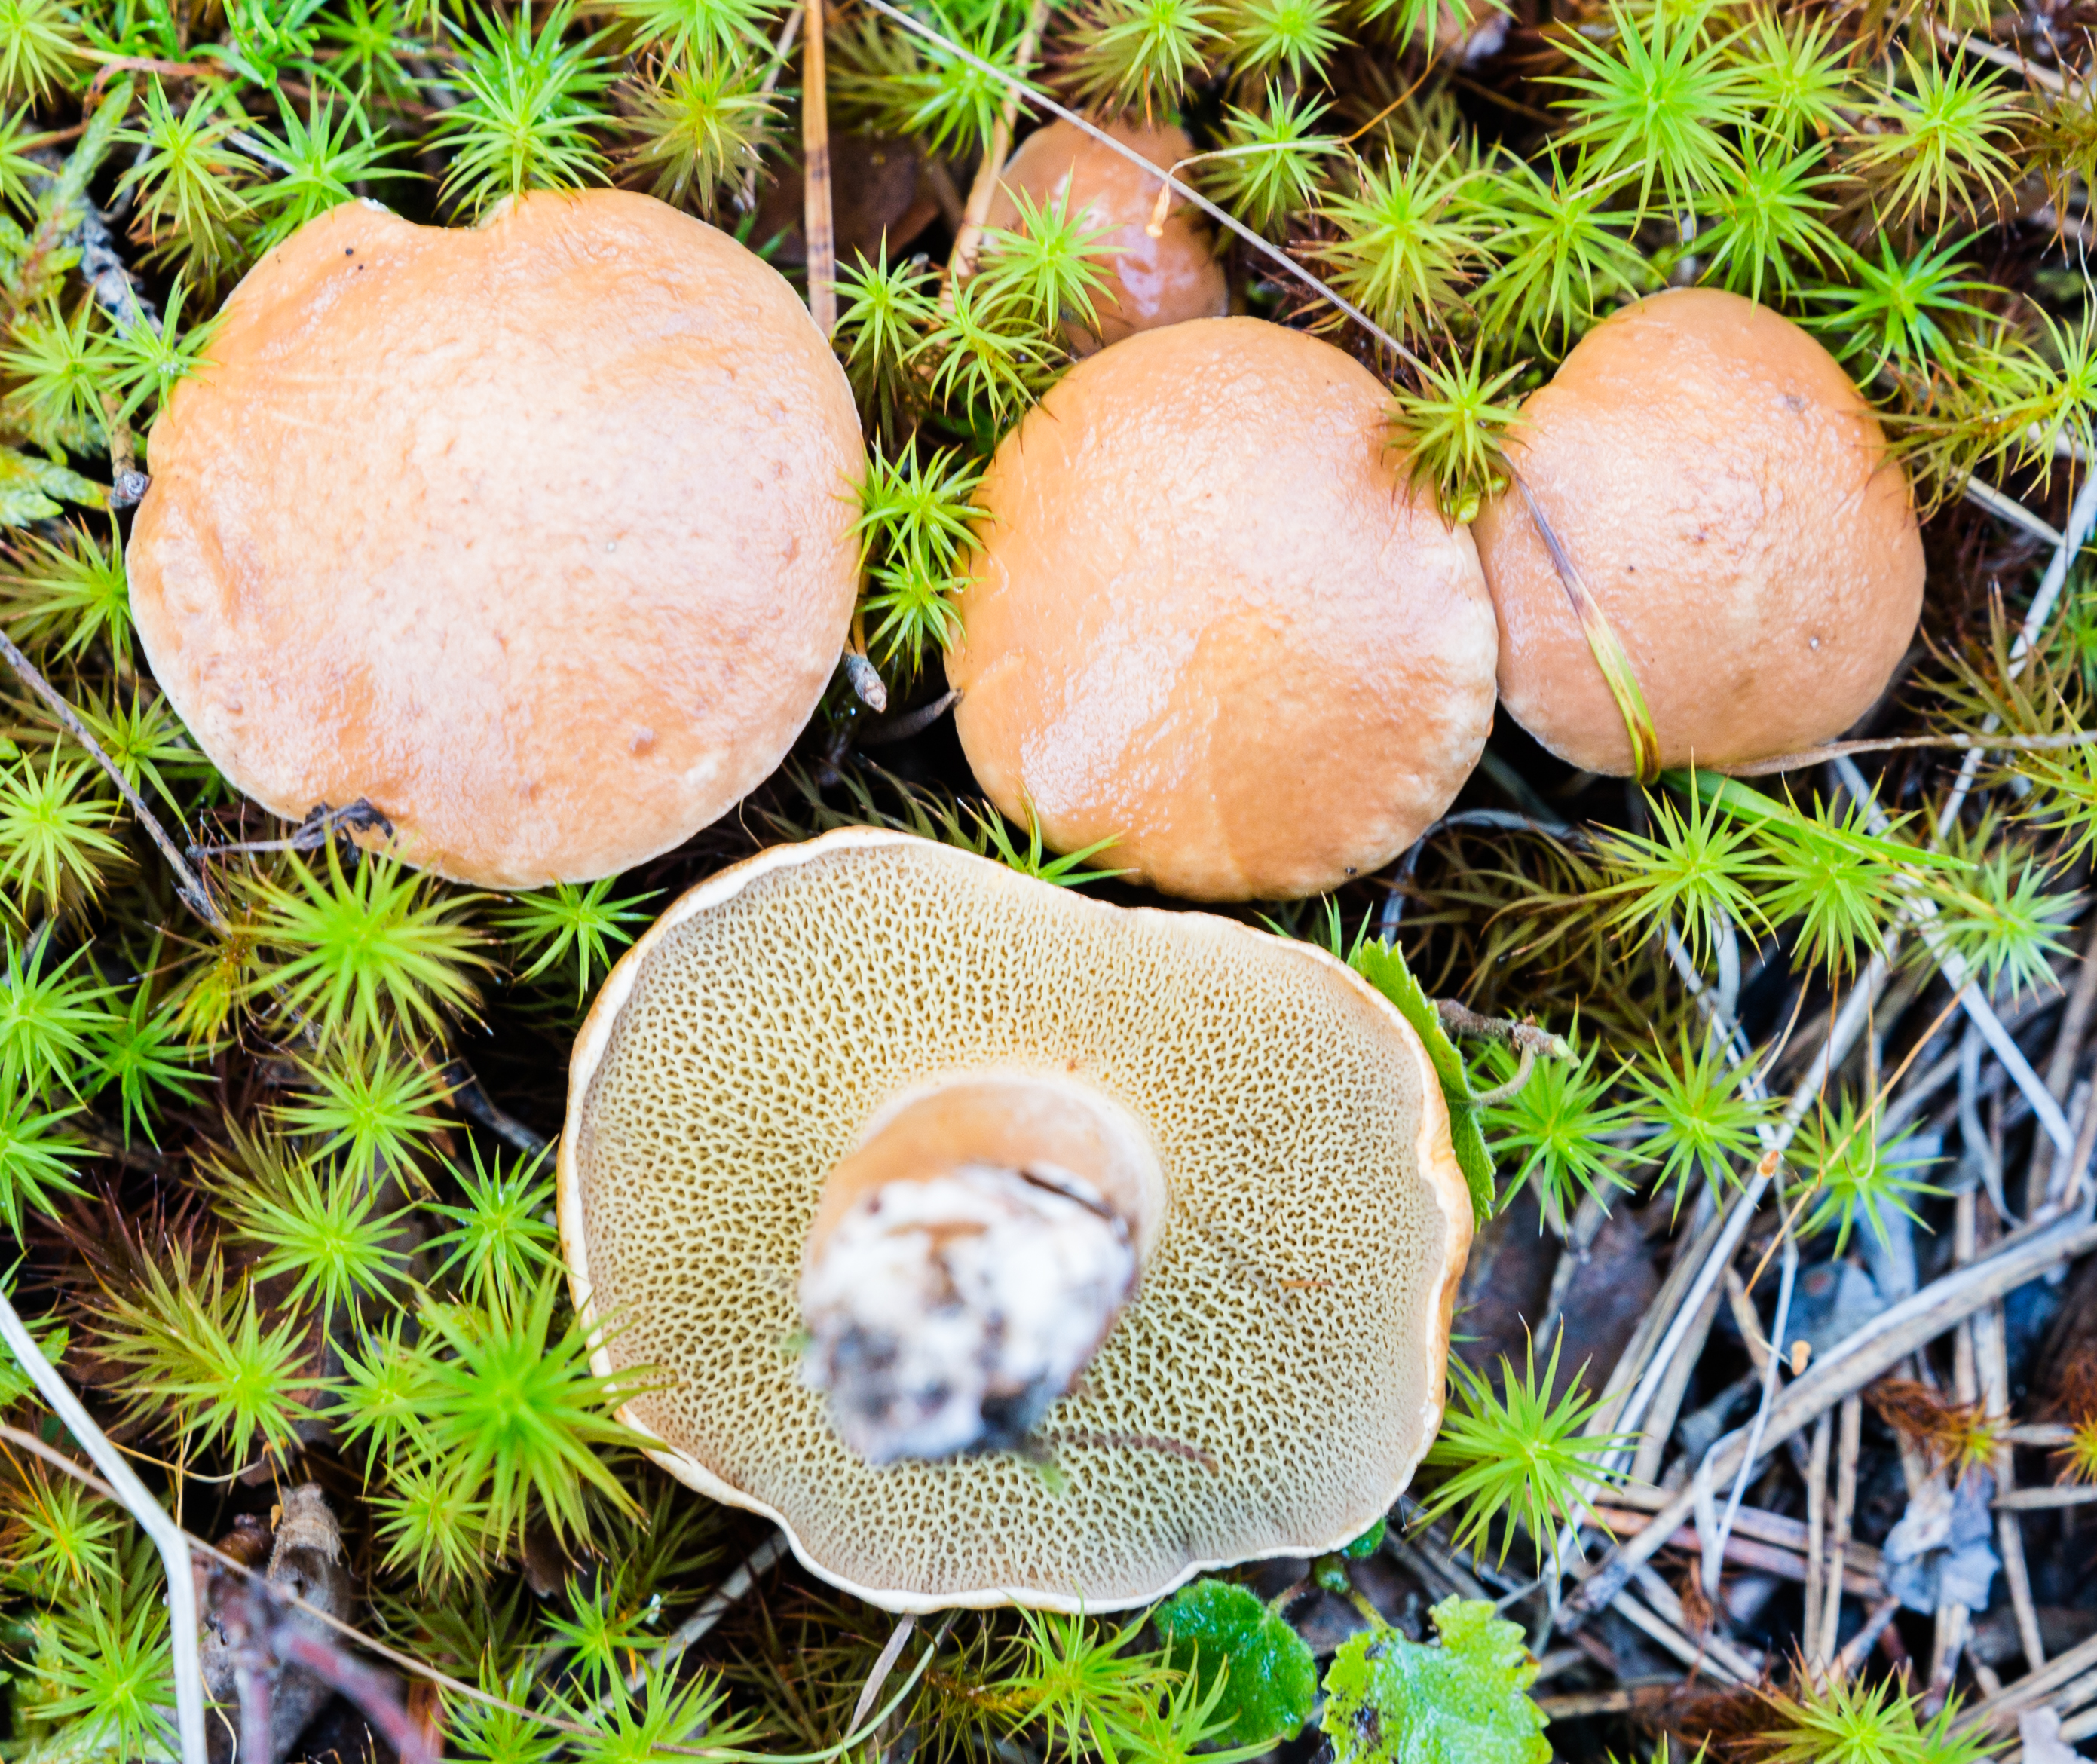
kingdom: Fungi
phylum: Basidiomycota
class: Agaricomycetes
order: Boletales
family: Suillaceae
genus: Suillus
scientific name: Suillus bovinus
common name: Bovine bolete
